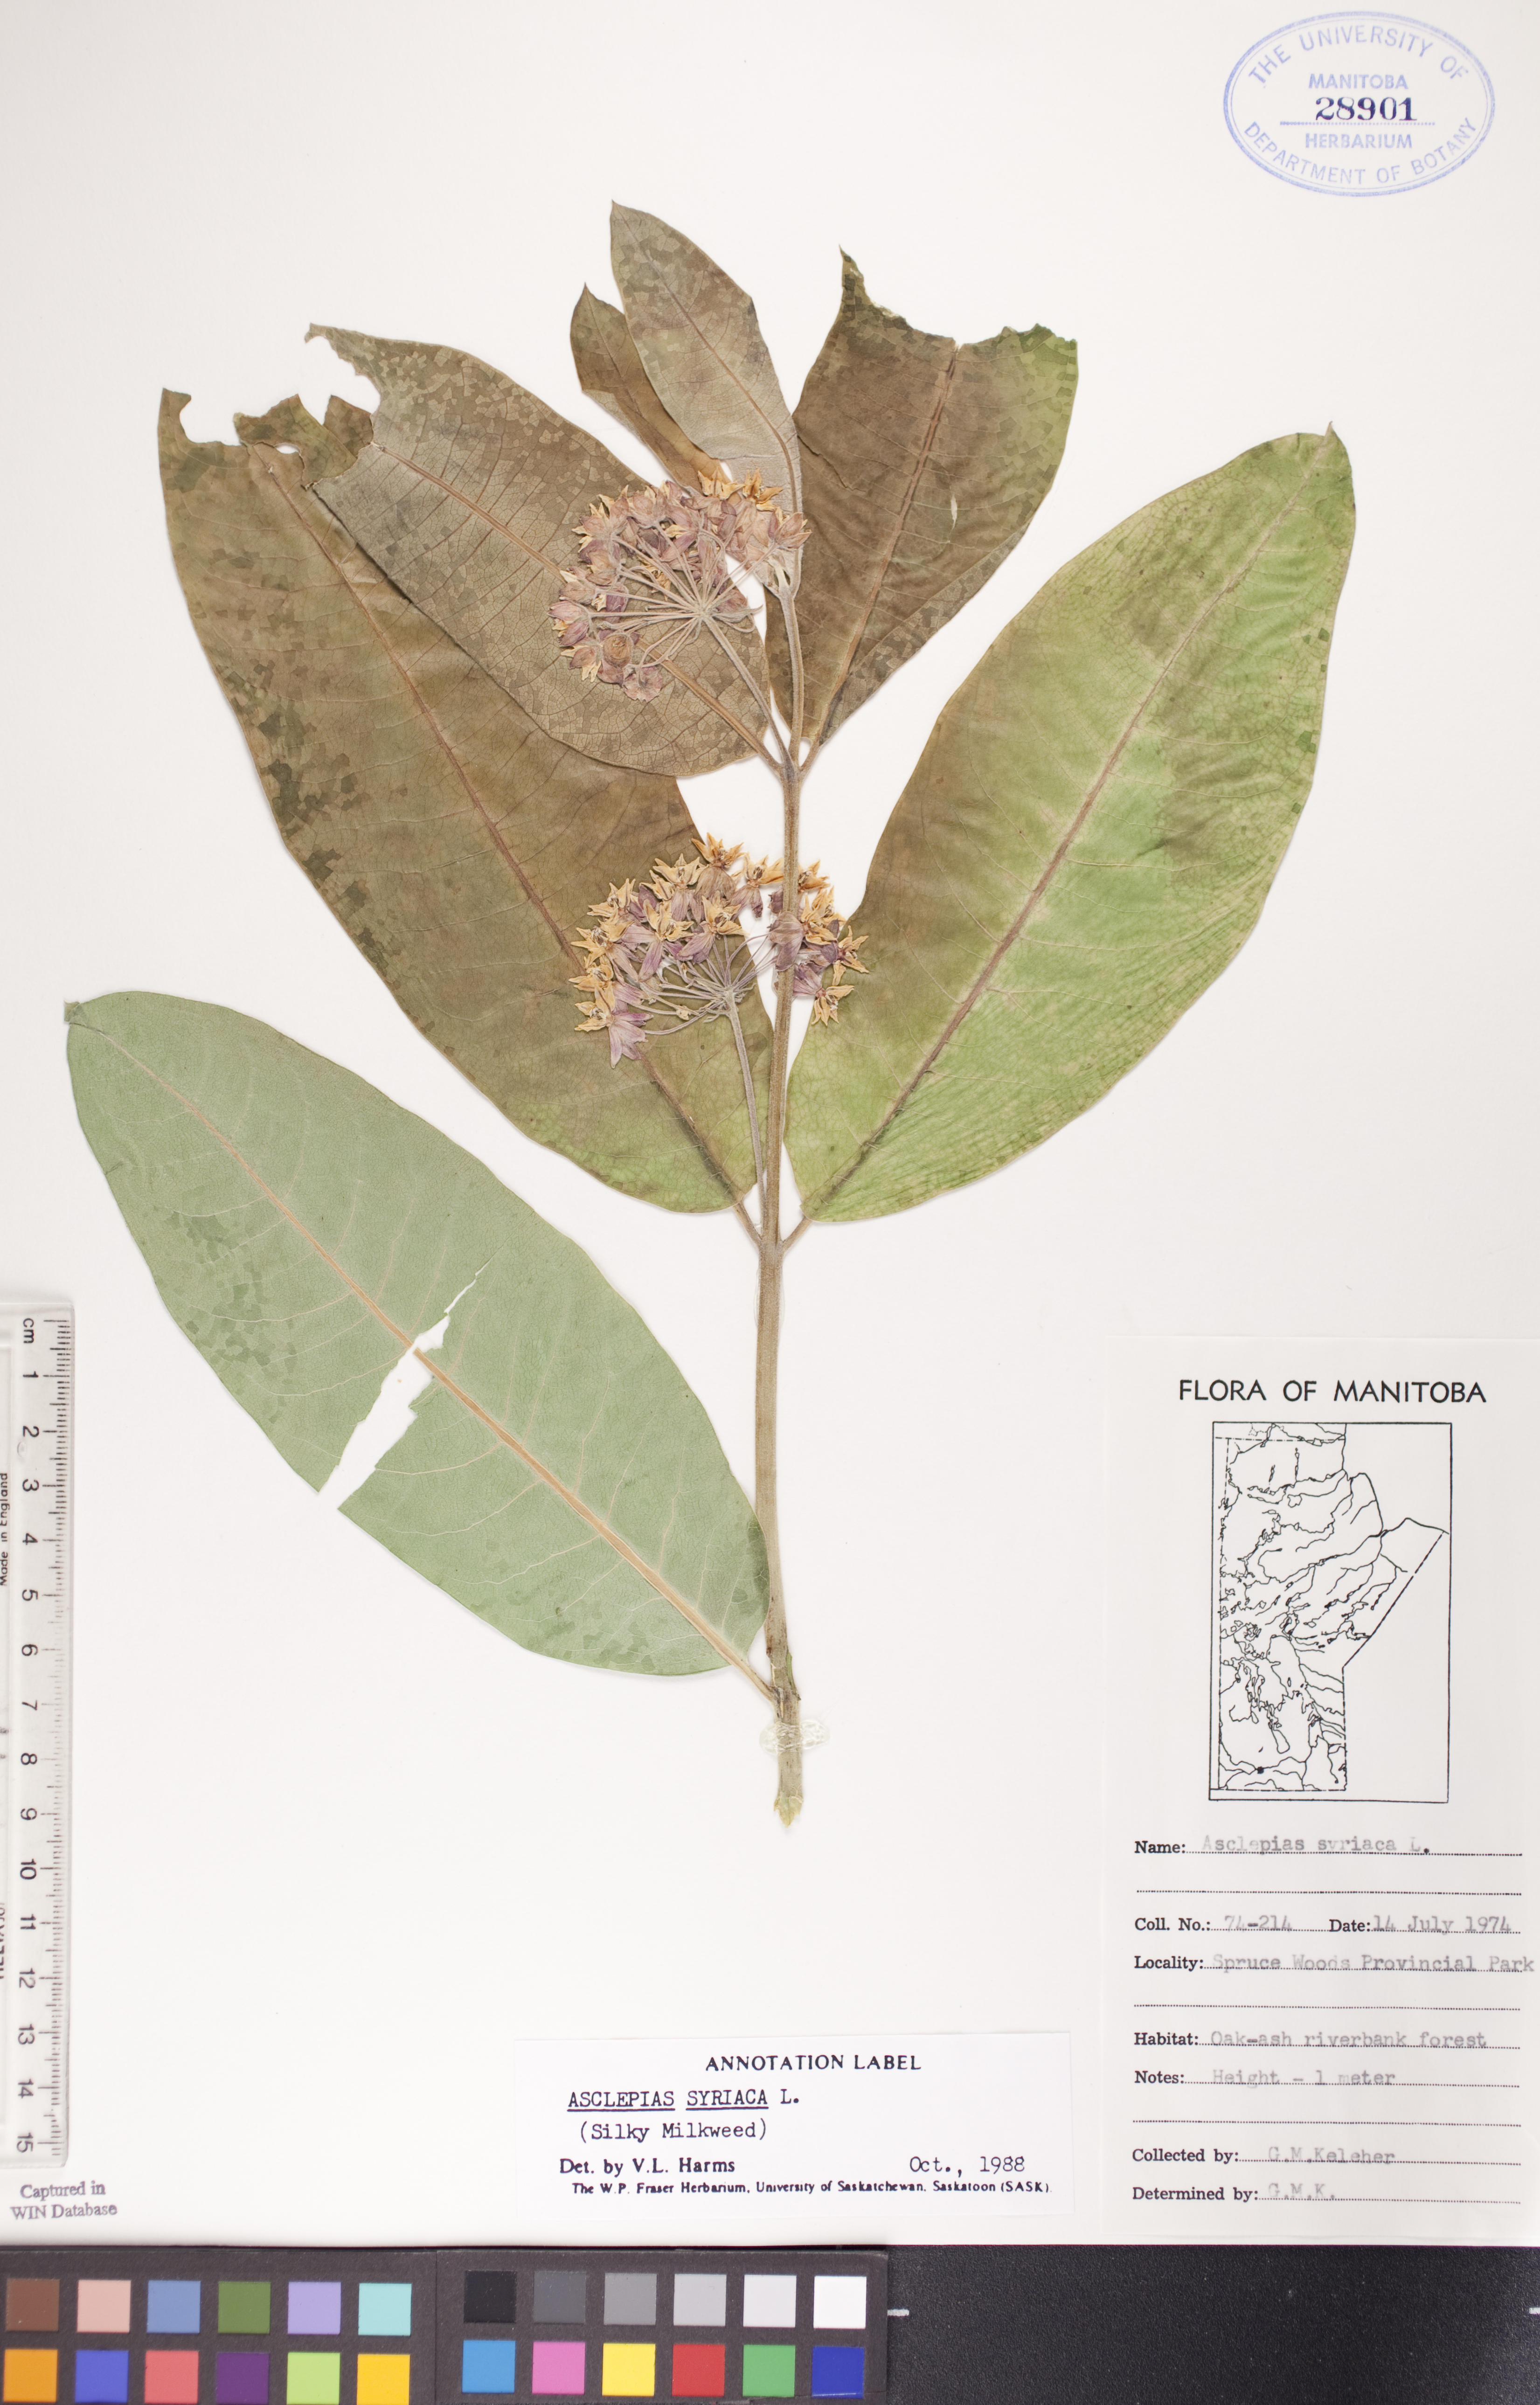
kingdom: Plantae
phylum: Tracheophyta
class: Magnoliopsida
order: Gentianales
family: Apocynaceae
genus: Asclepias
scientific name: Asclepias syriaca
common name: Common milkweed
